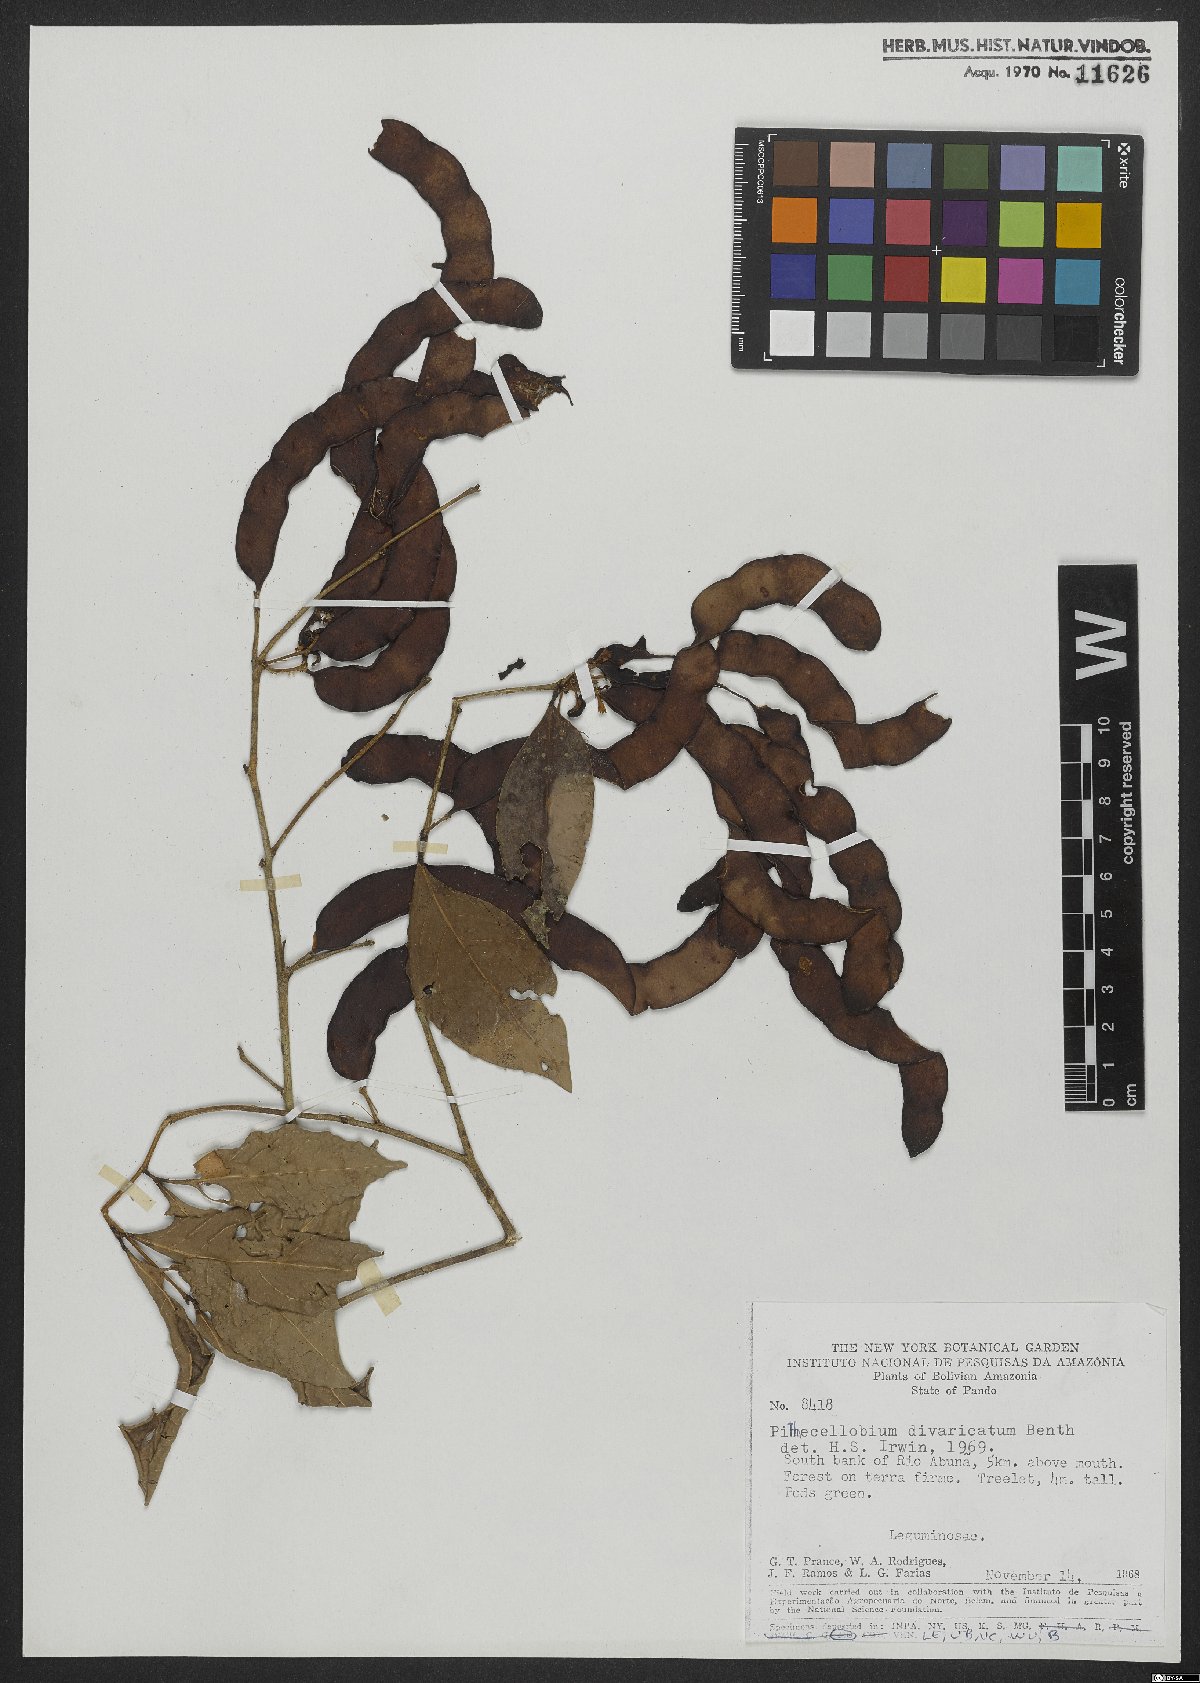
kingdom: Plantae
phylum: Tracheophyta
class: Magnoliopsida
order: Fabales
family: Fabaceae
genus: Zygia
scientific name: Zygia cataractae
